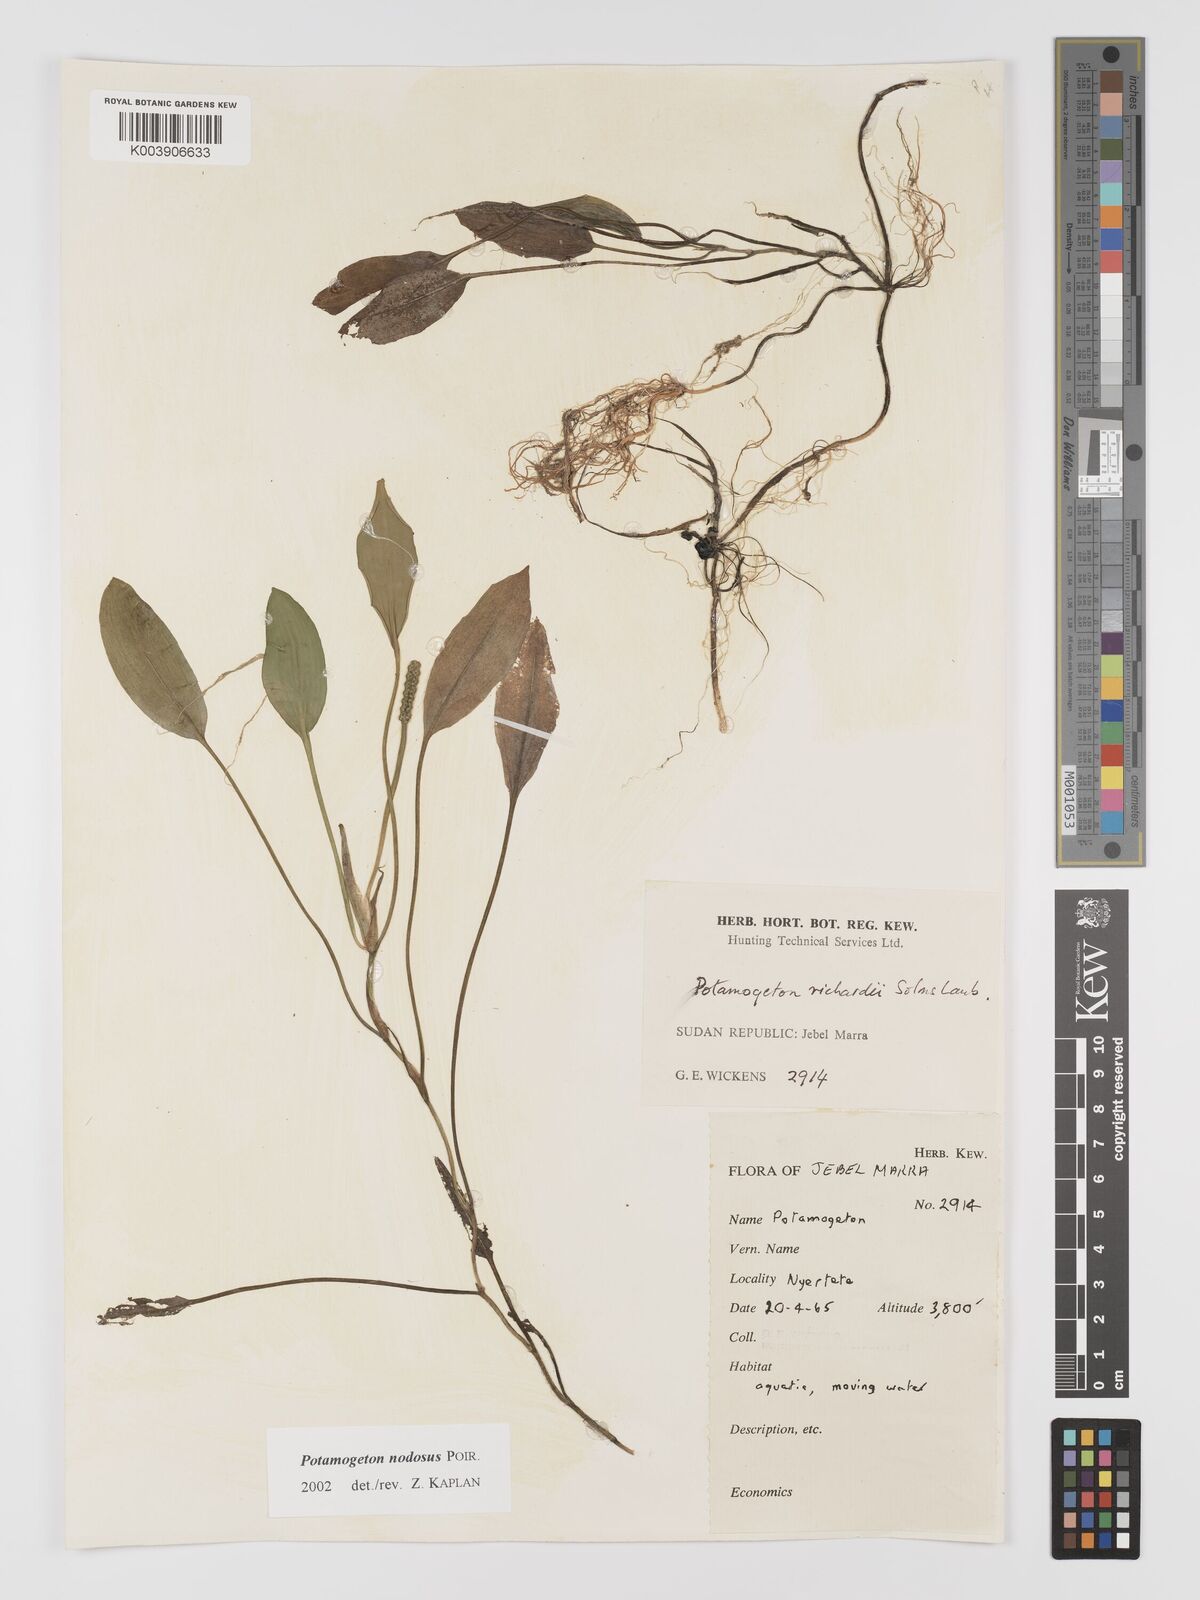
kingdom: Plantae
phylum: Tracheophyta
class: Liliopsida
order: Alismatales
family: Potamogetonaceae
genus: Potamogeton
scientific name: Potamogeton nodosus
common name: Loddon pondweed
